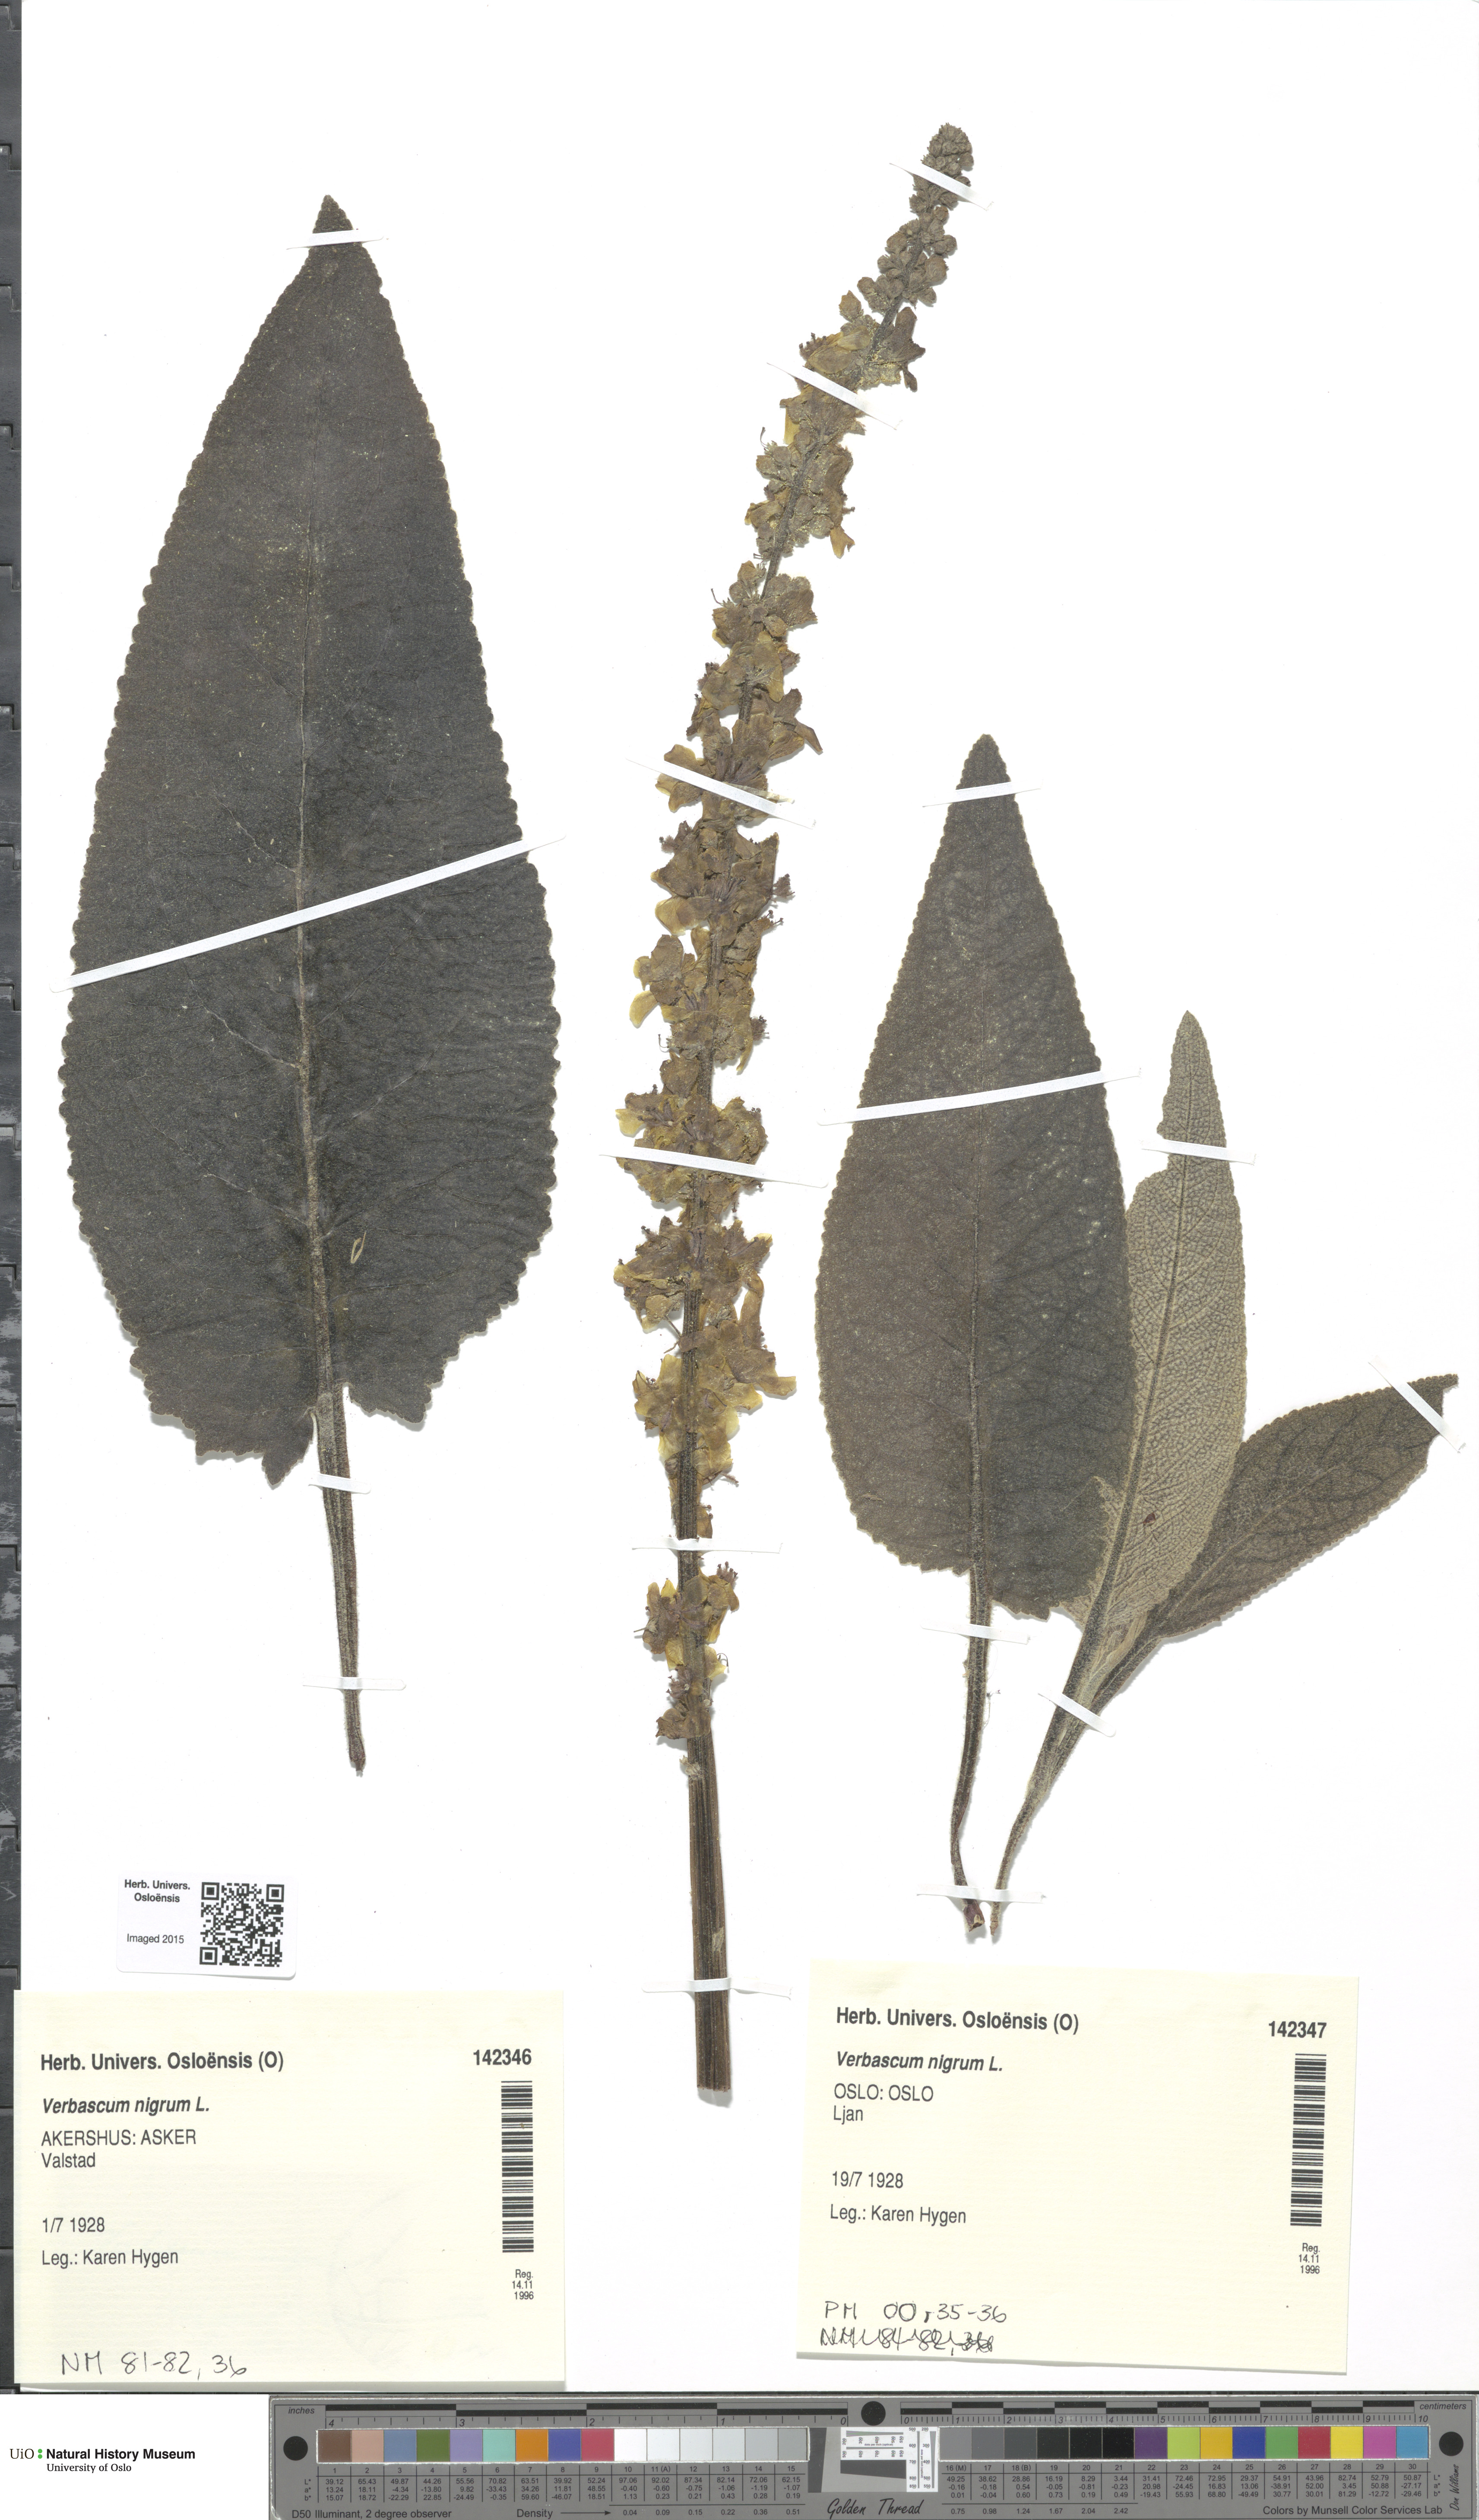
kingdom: Plantae
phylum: Tracheophyta
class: Magnoliopsida
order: Lamiales
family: Scrophulariaceae
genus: Verbascum
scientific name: Verbascum nigrum
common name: Dark mullein
